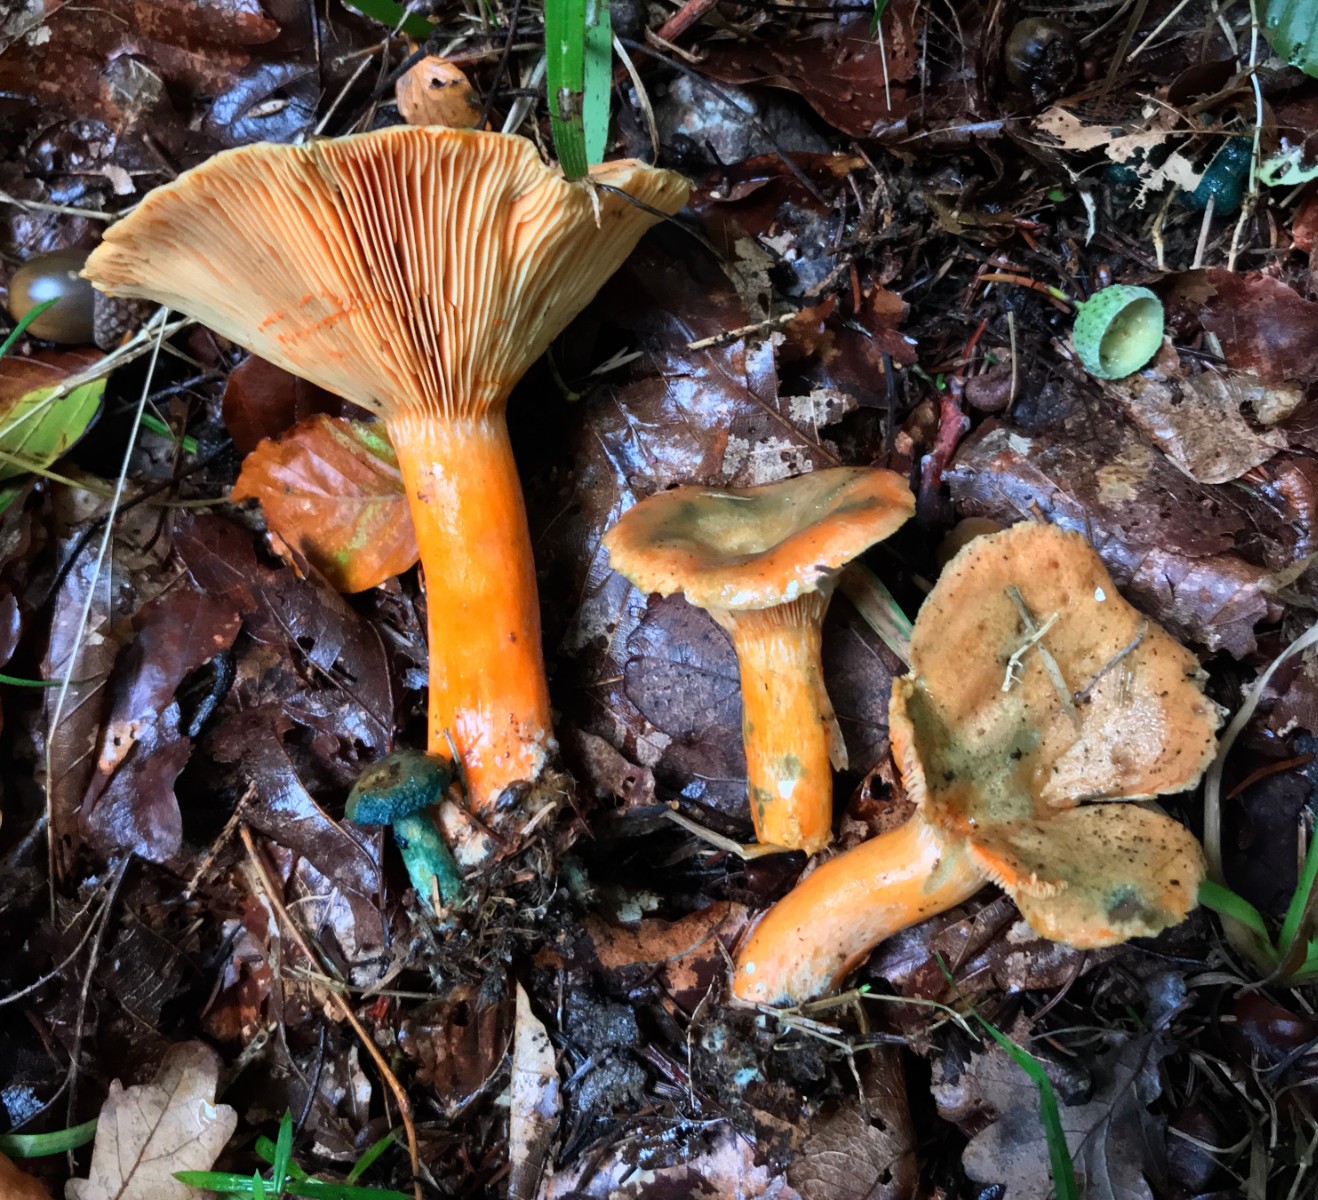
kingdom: Fungi
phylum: Basidiomycota
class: Agaricomycetes
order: Russulales
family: Russulaceae
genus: Lactarius
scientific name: Lactarius deterrimus
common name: gran-mælkehat
